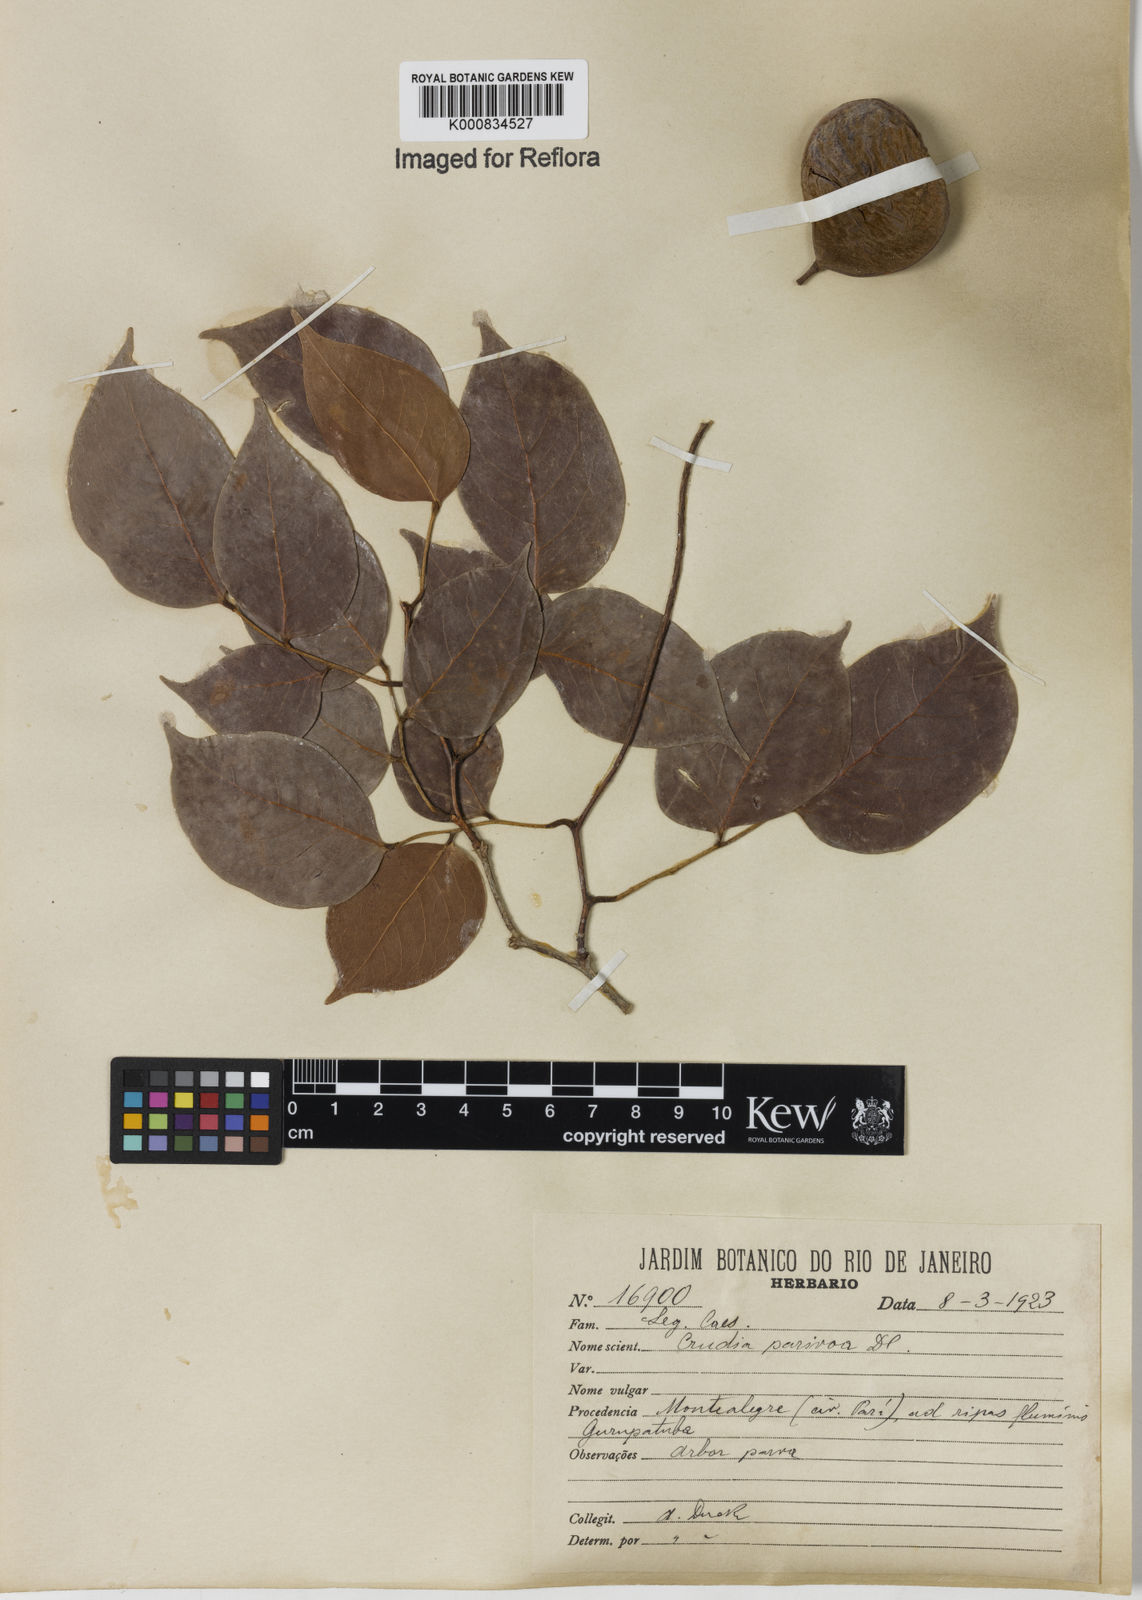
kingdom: Plantae
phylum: Tracheophyta
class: Magnoliopsida
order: Fabales
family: Fabaceae
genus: Crudia
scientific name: Crudia tomentosa
